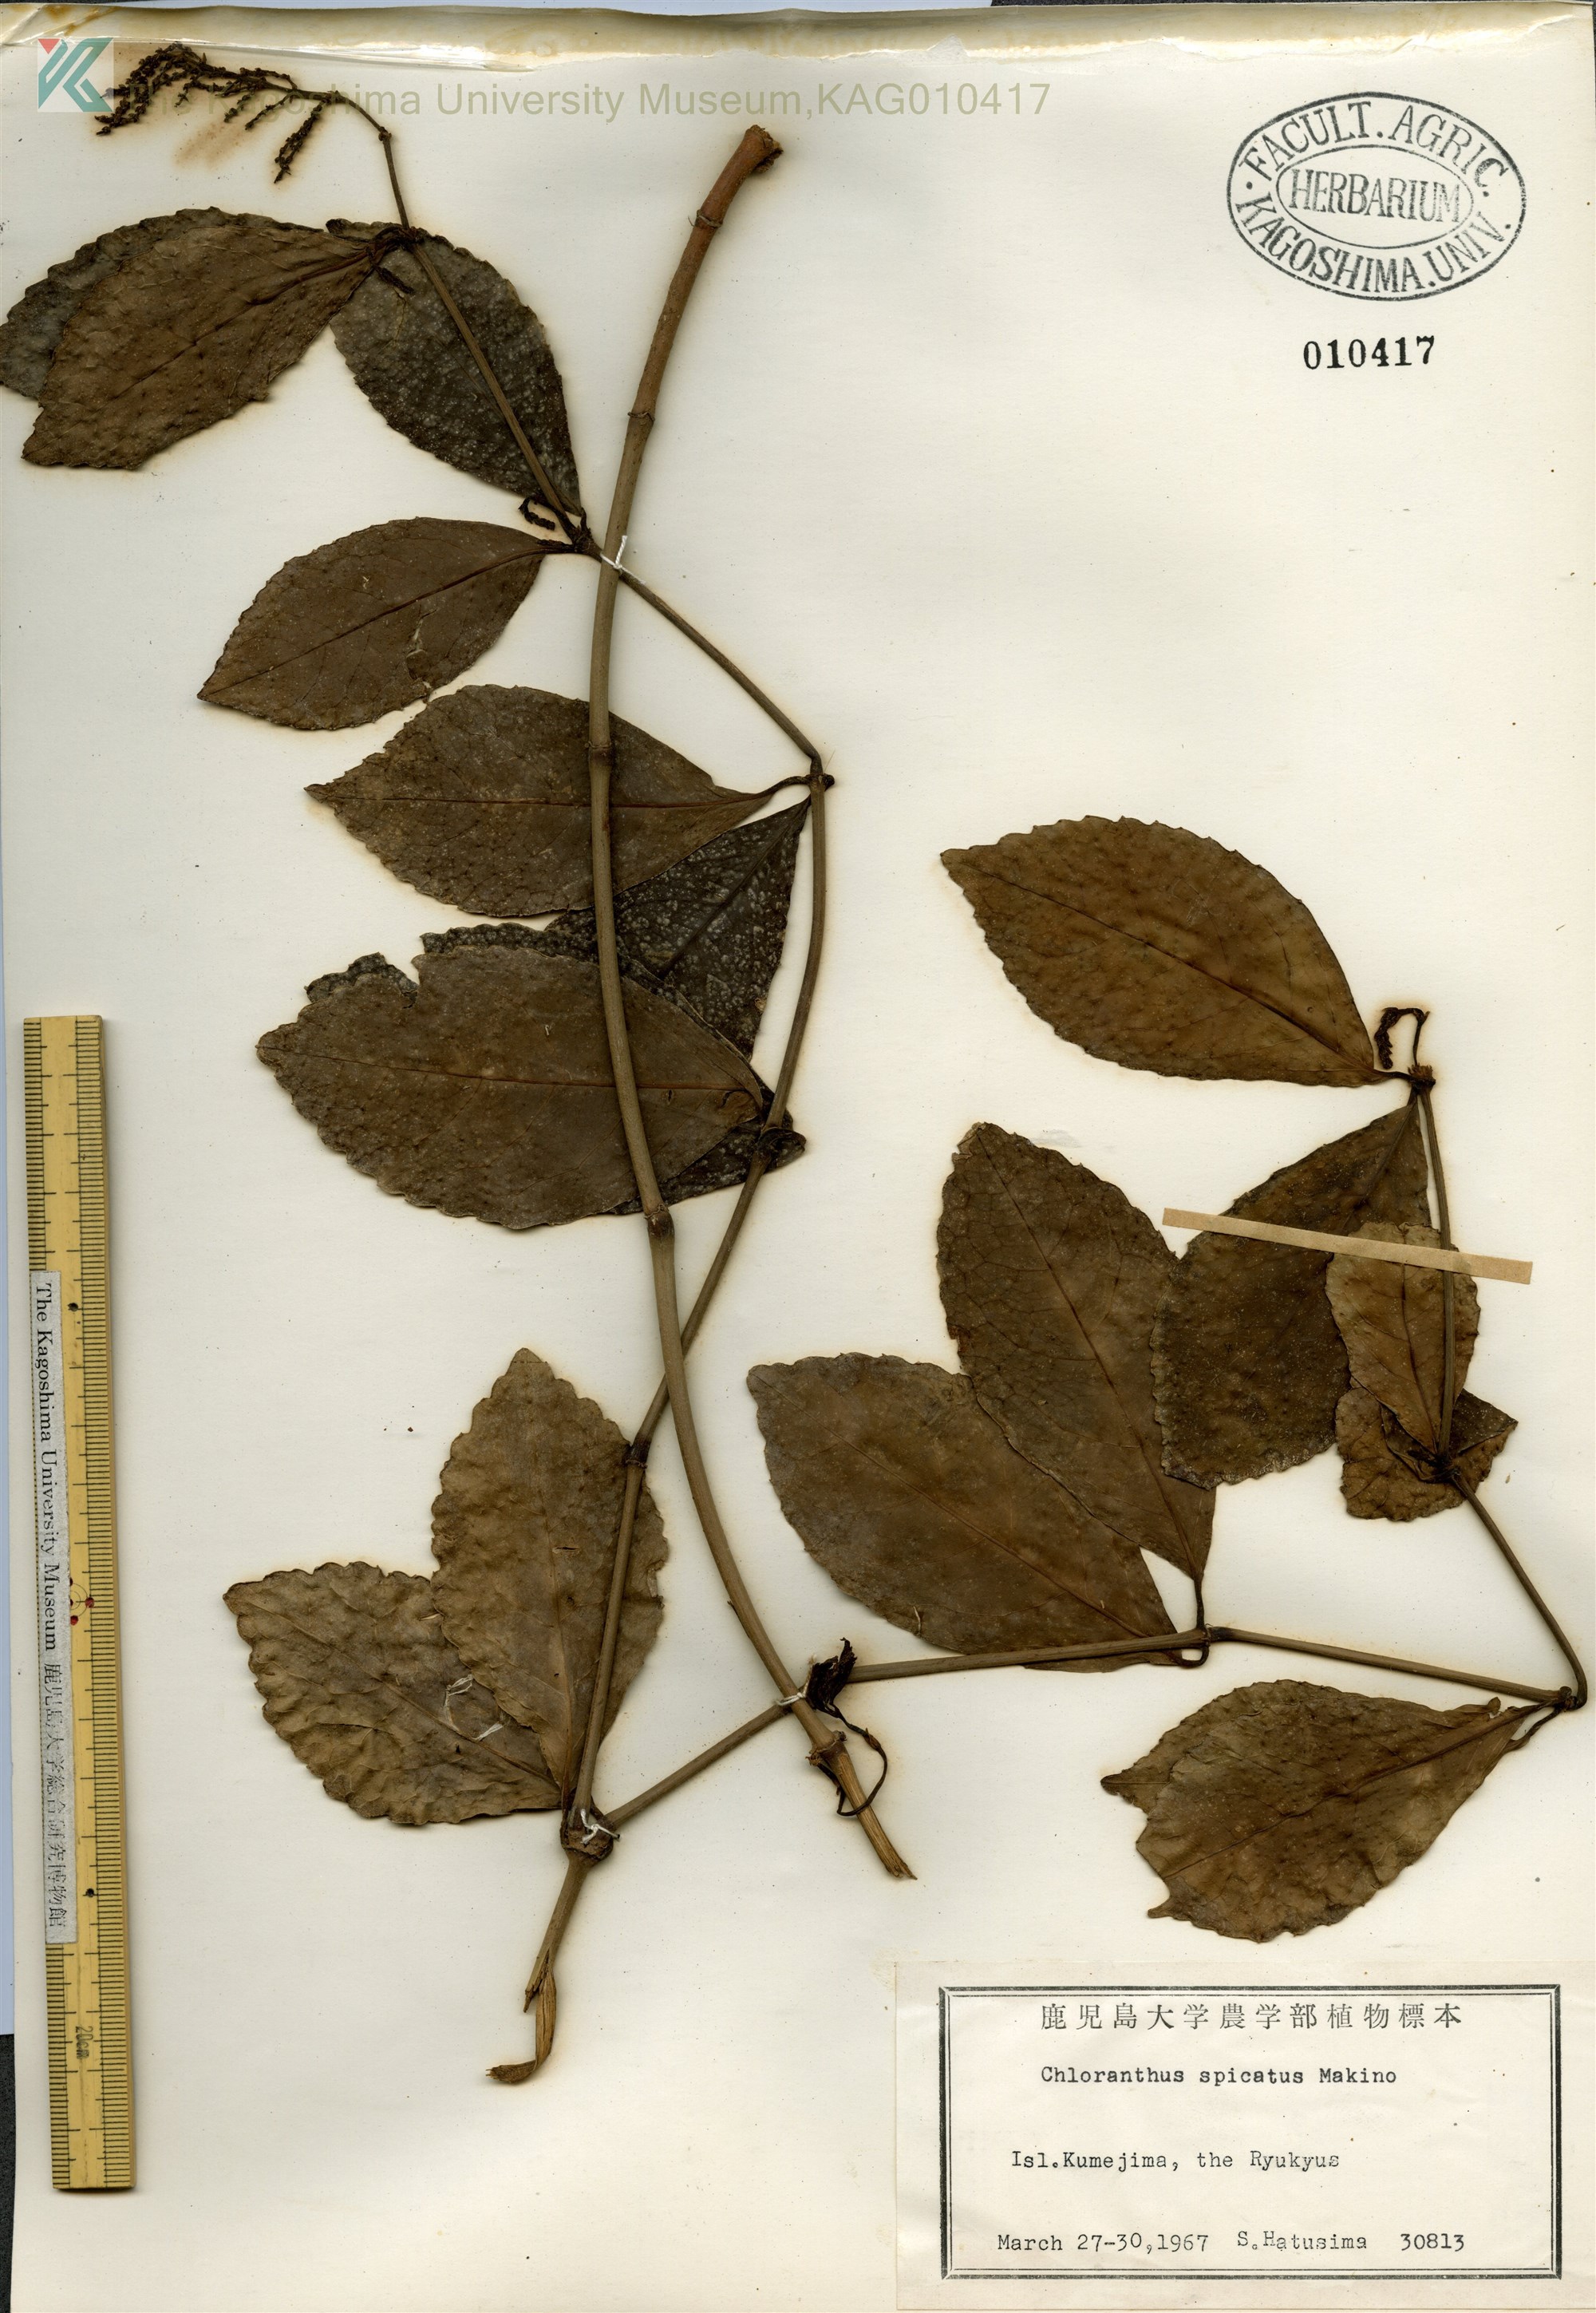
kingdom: Plantae
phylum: Tracheophyta
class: Magnoliopsida
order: Chloranthales
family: Chloranthaceae
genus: Chloranthus
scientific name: Chloranthus spicatus
